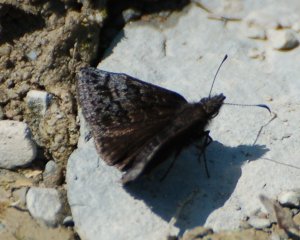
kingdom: Animalia
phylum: Arthropoda
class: Insecta
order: Lepidoptera
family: Hesperiidae
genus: Erynnis
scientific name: Erynnis icelus
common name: Dreamy Duskywing
